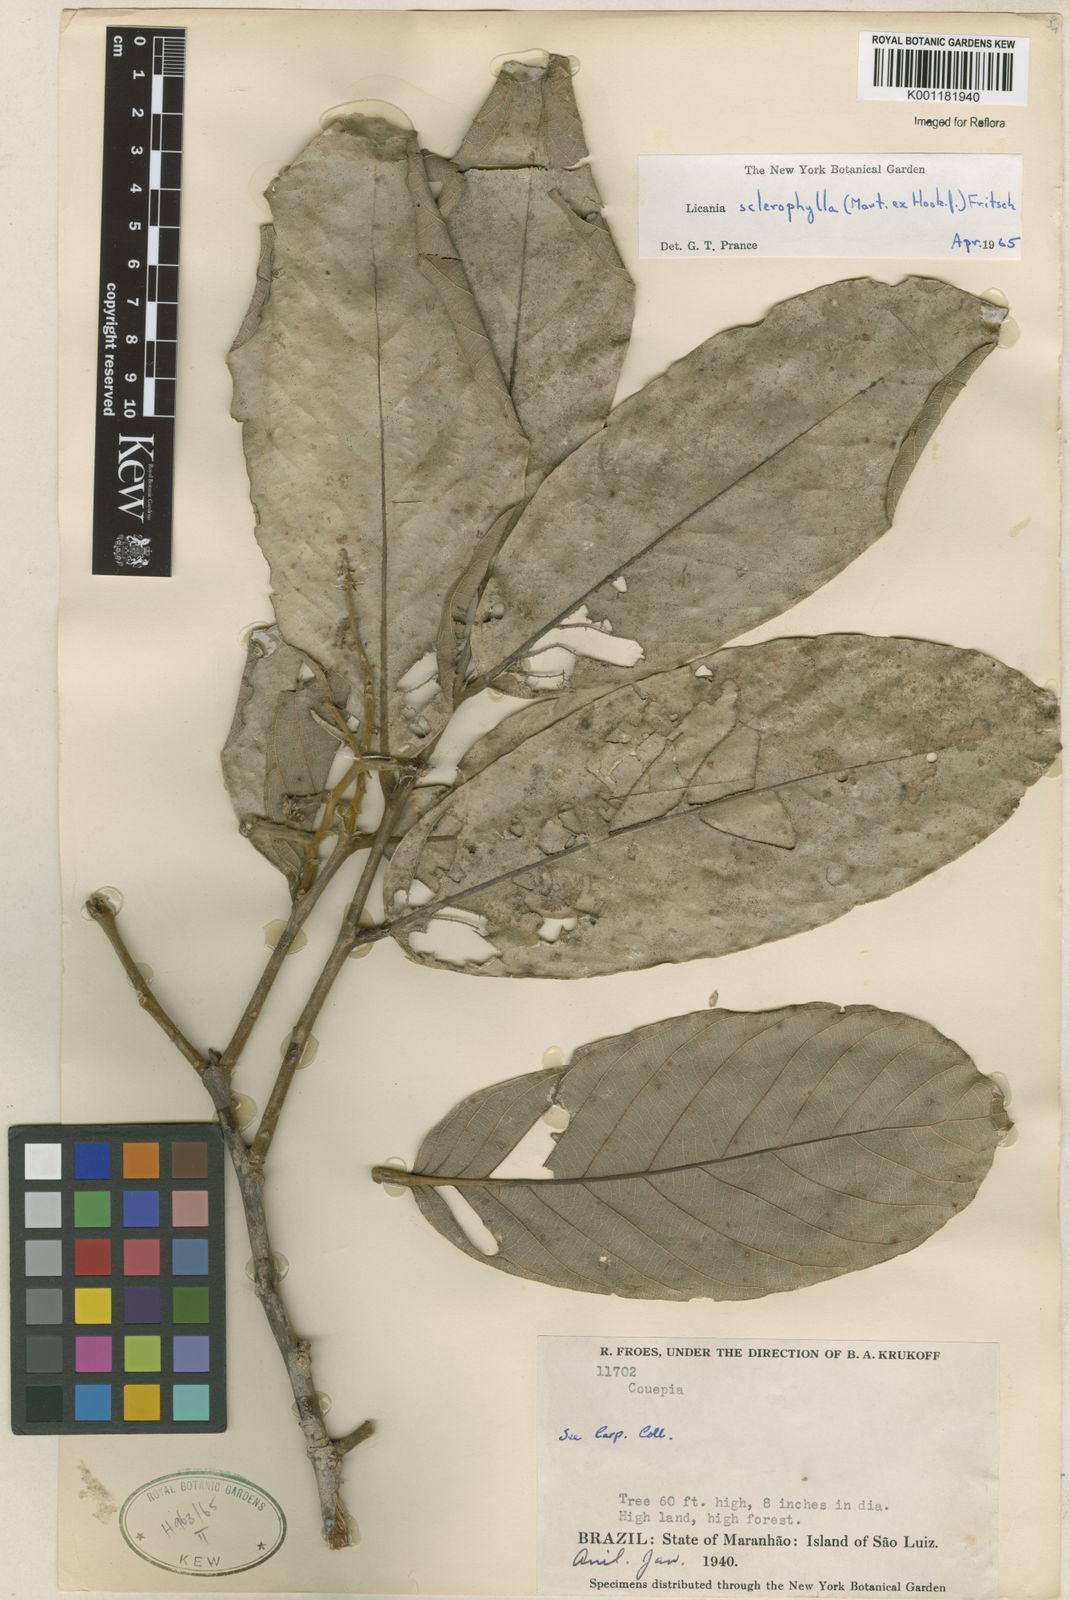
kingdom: Plantae
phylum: Tracheophyta
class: Magnoliopsida
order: Malpighiales
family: Chrysobalanaceae
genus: Leptobalanus
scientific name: Leptobalanus sclerophyllus
